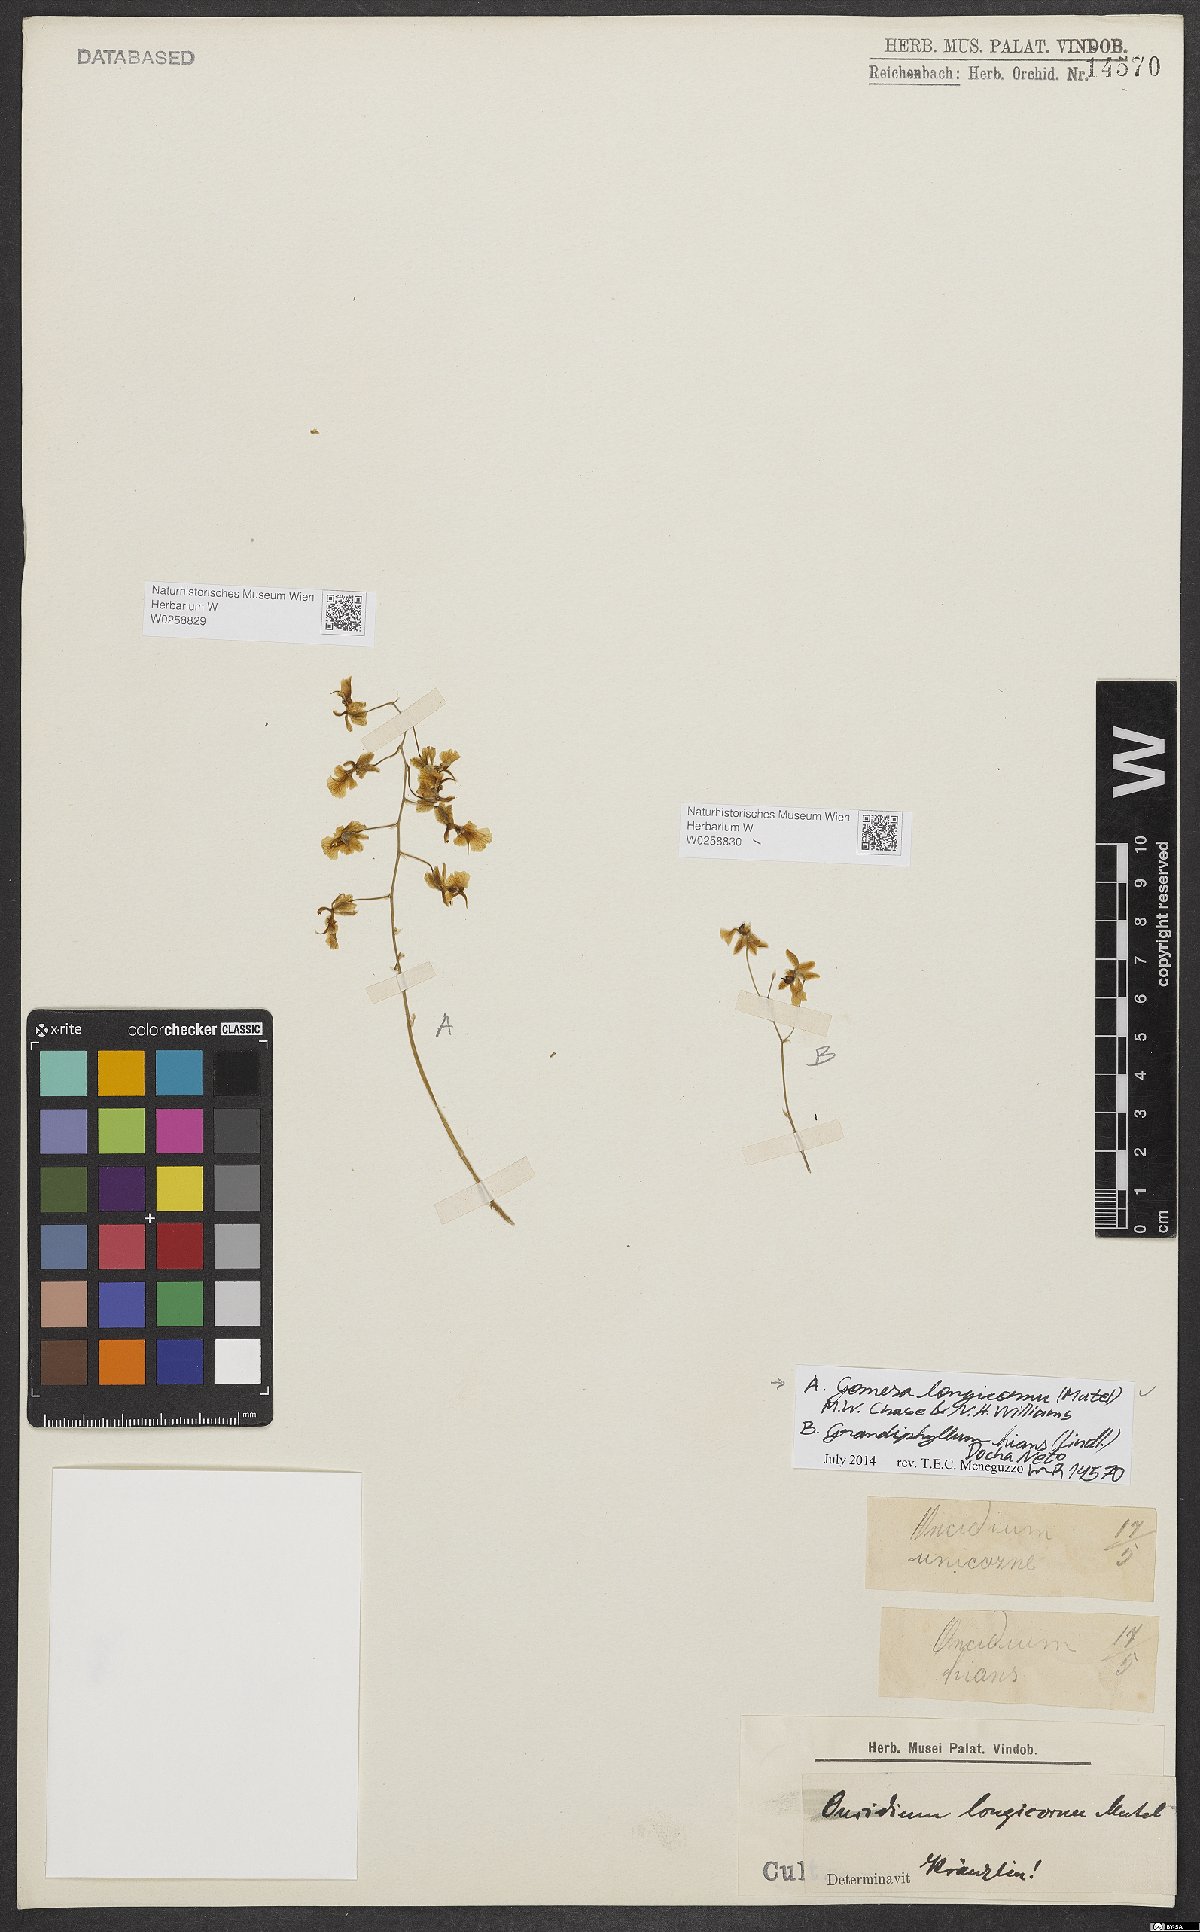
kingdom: Plantae
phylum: Tracheophyta
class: Liliopsida
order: Asparagales
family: Orchidaceae
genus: Grandiphyllum
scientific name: Grandiphyllum hians
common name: Mule-ear orchid
